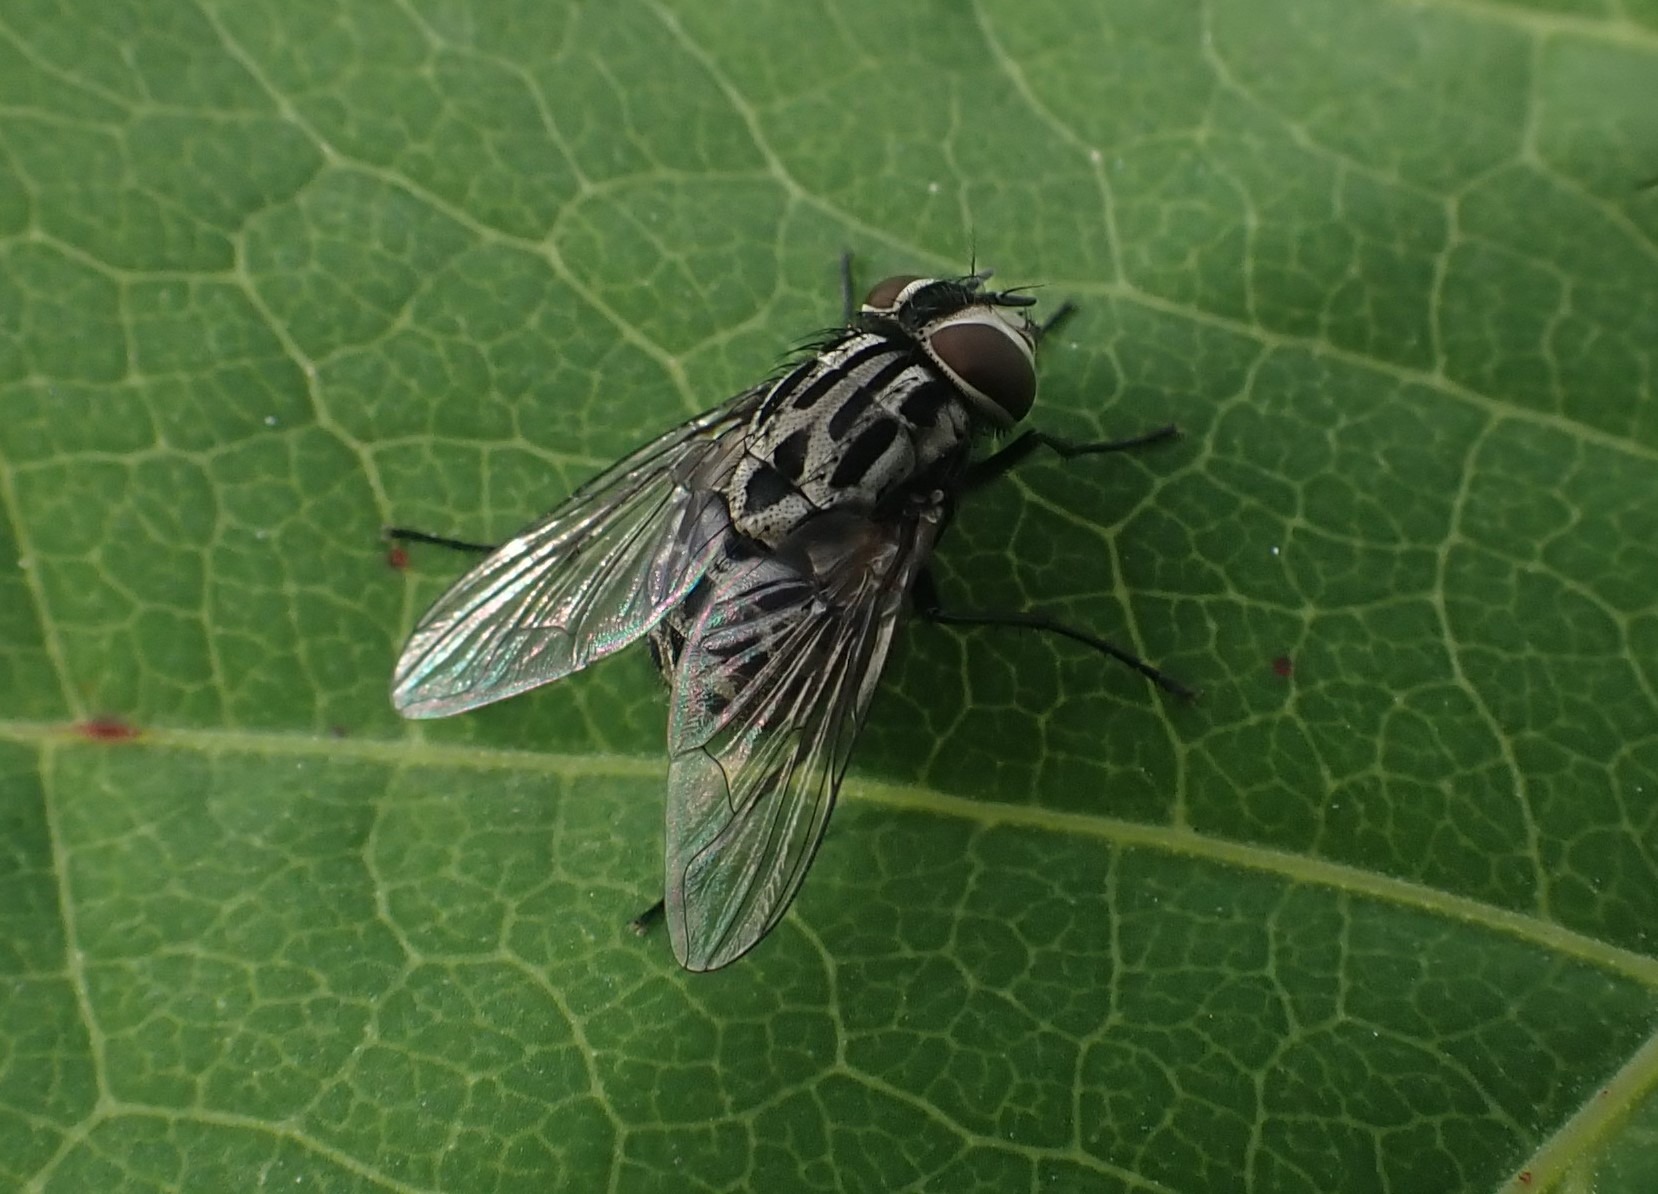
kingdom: Animalia
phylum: Arthropoda
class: Insecta
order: Diptera
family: Muscidae
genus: Graphomya
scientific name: Graphomya maculata
